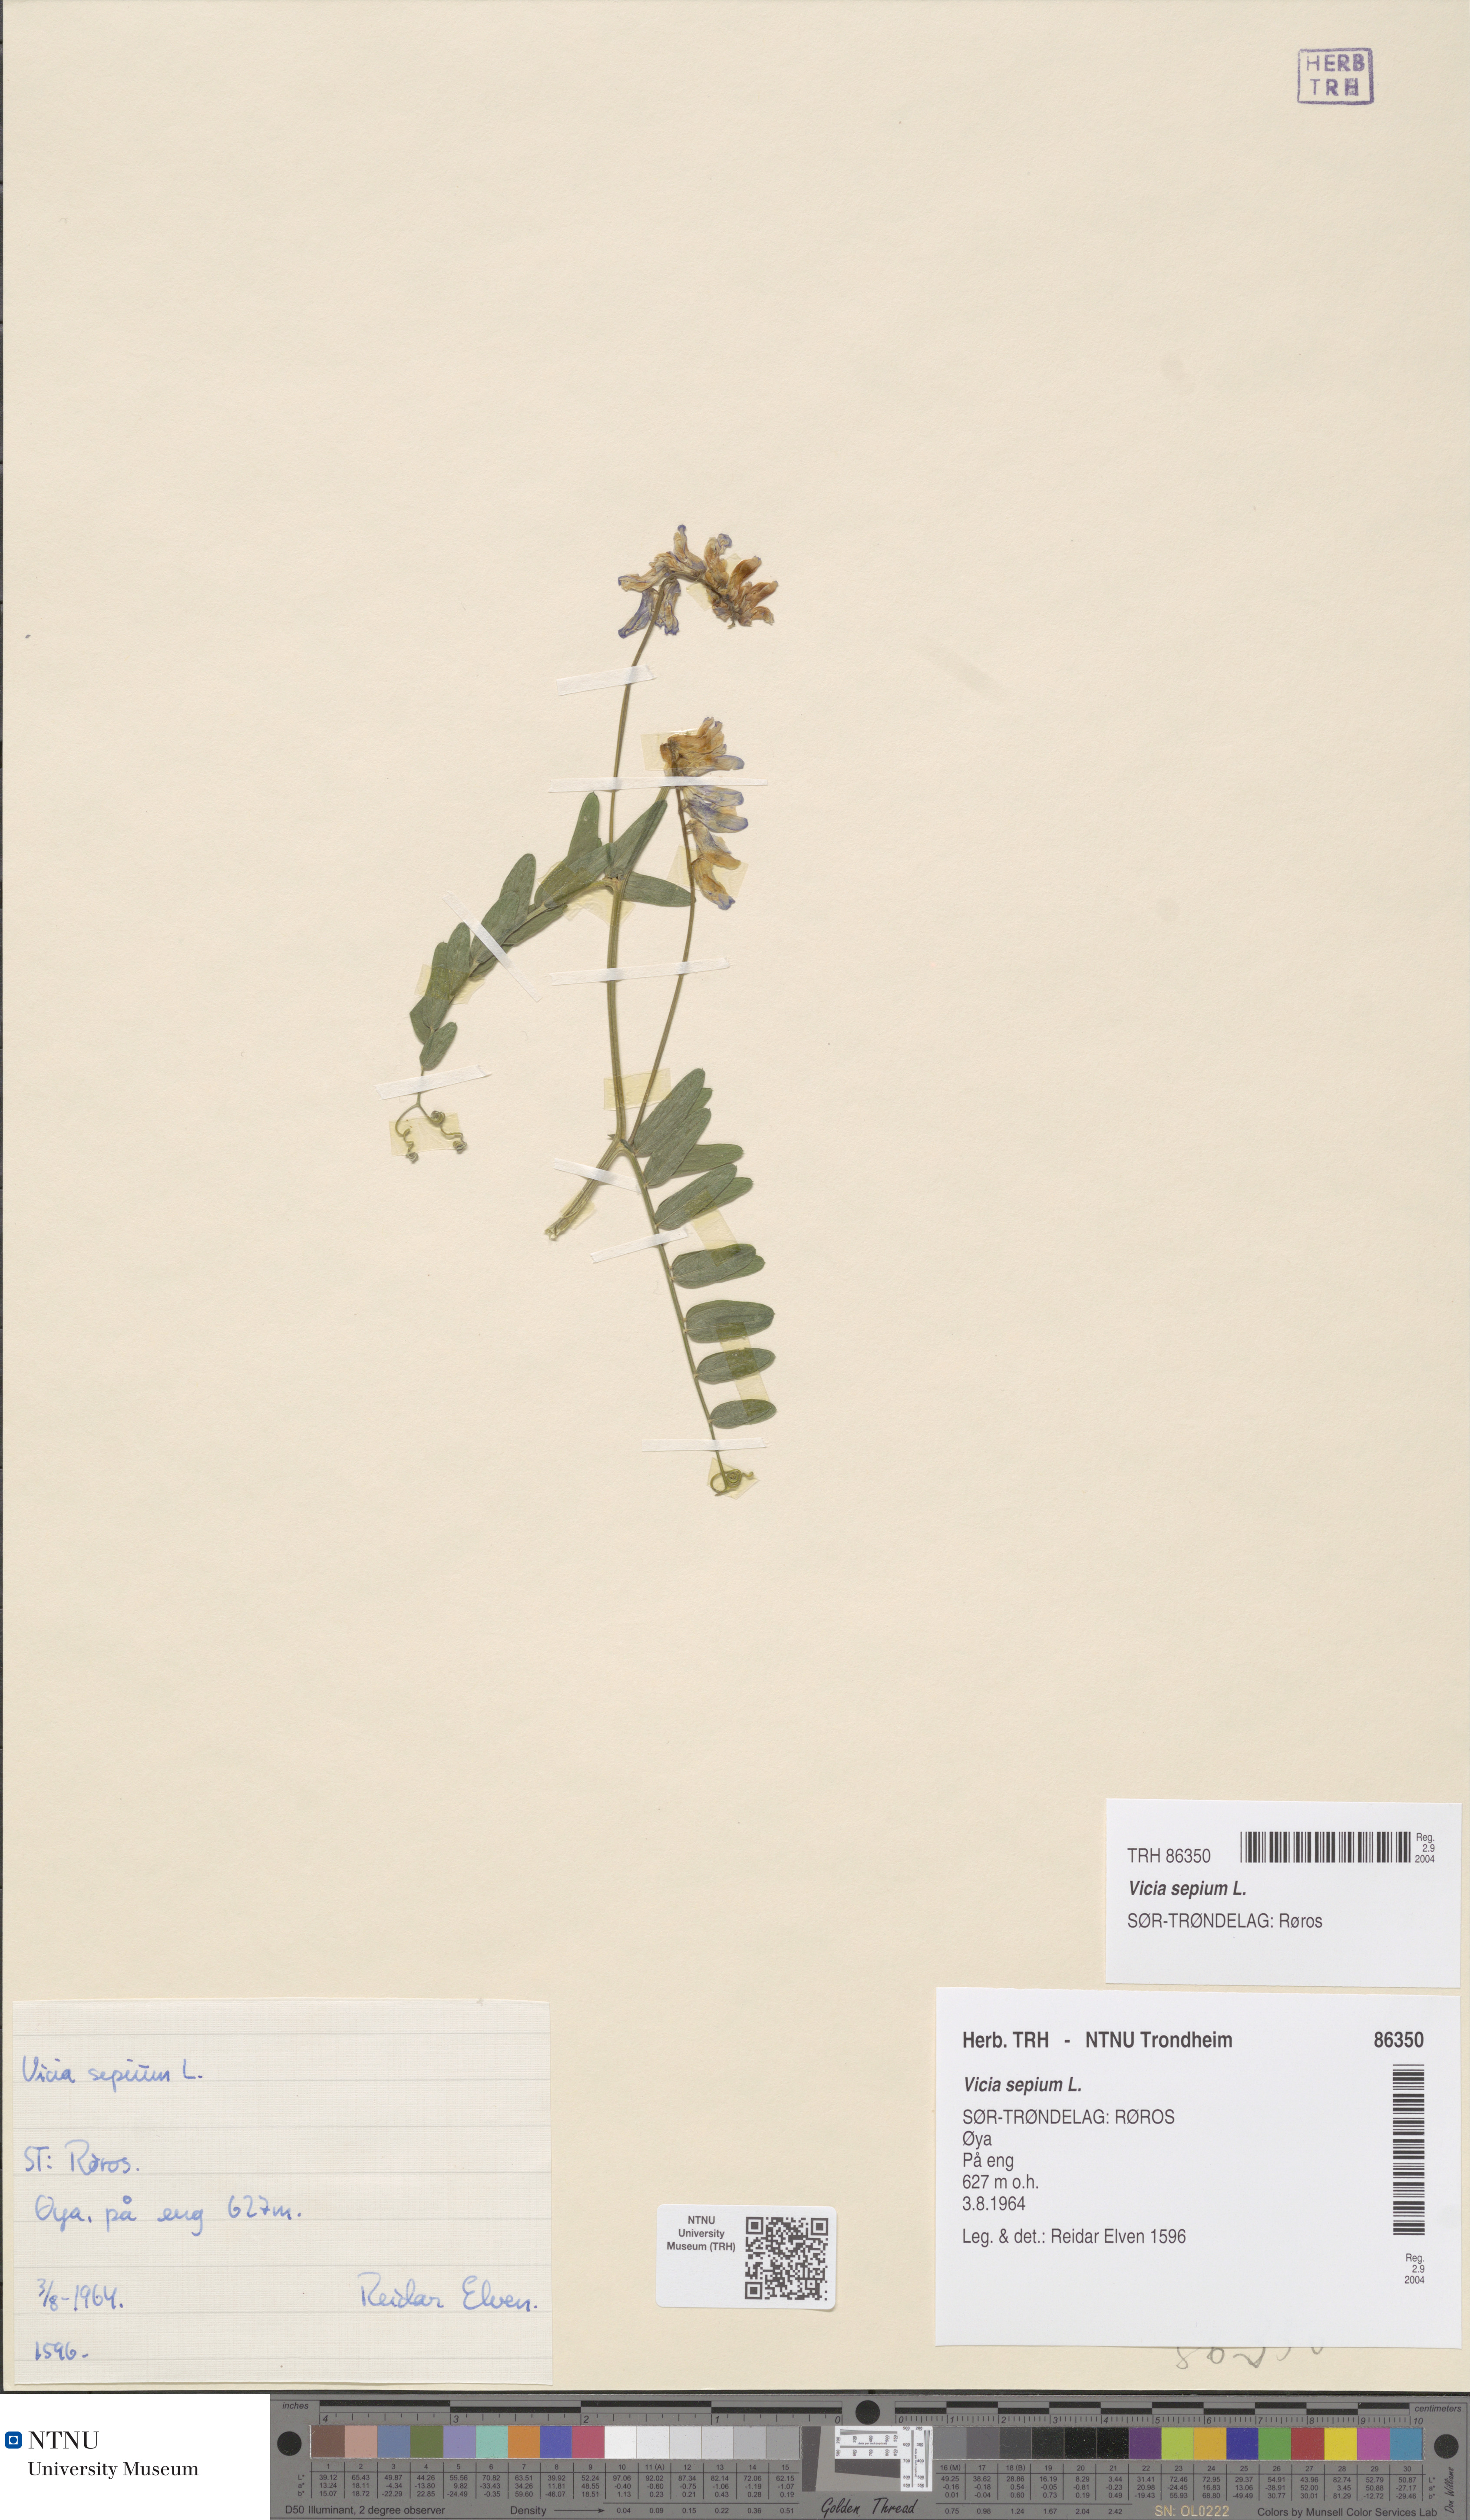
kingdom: Plantae
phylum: Tracheophyta
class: Magnoliopsida
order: Fabales
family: Fabaceae
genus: Vicia
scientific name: Vicia sepium
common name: Bush vetch
